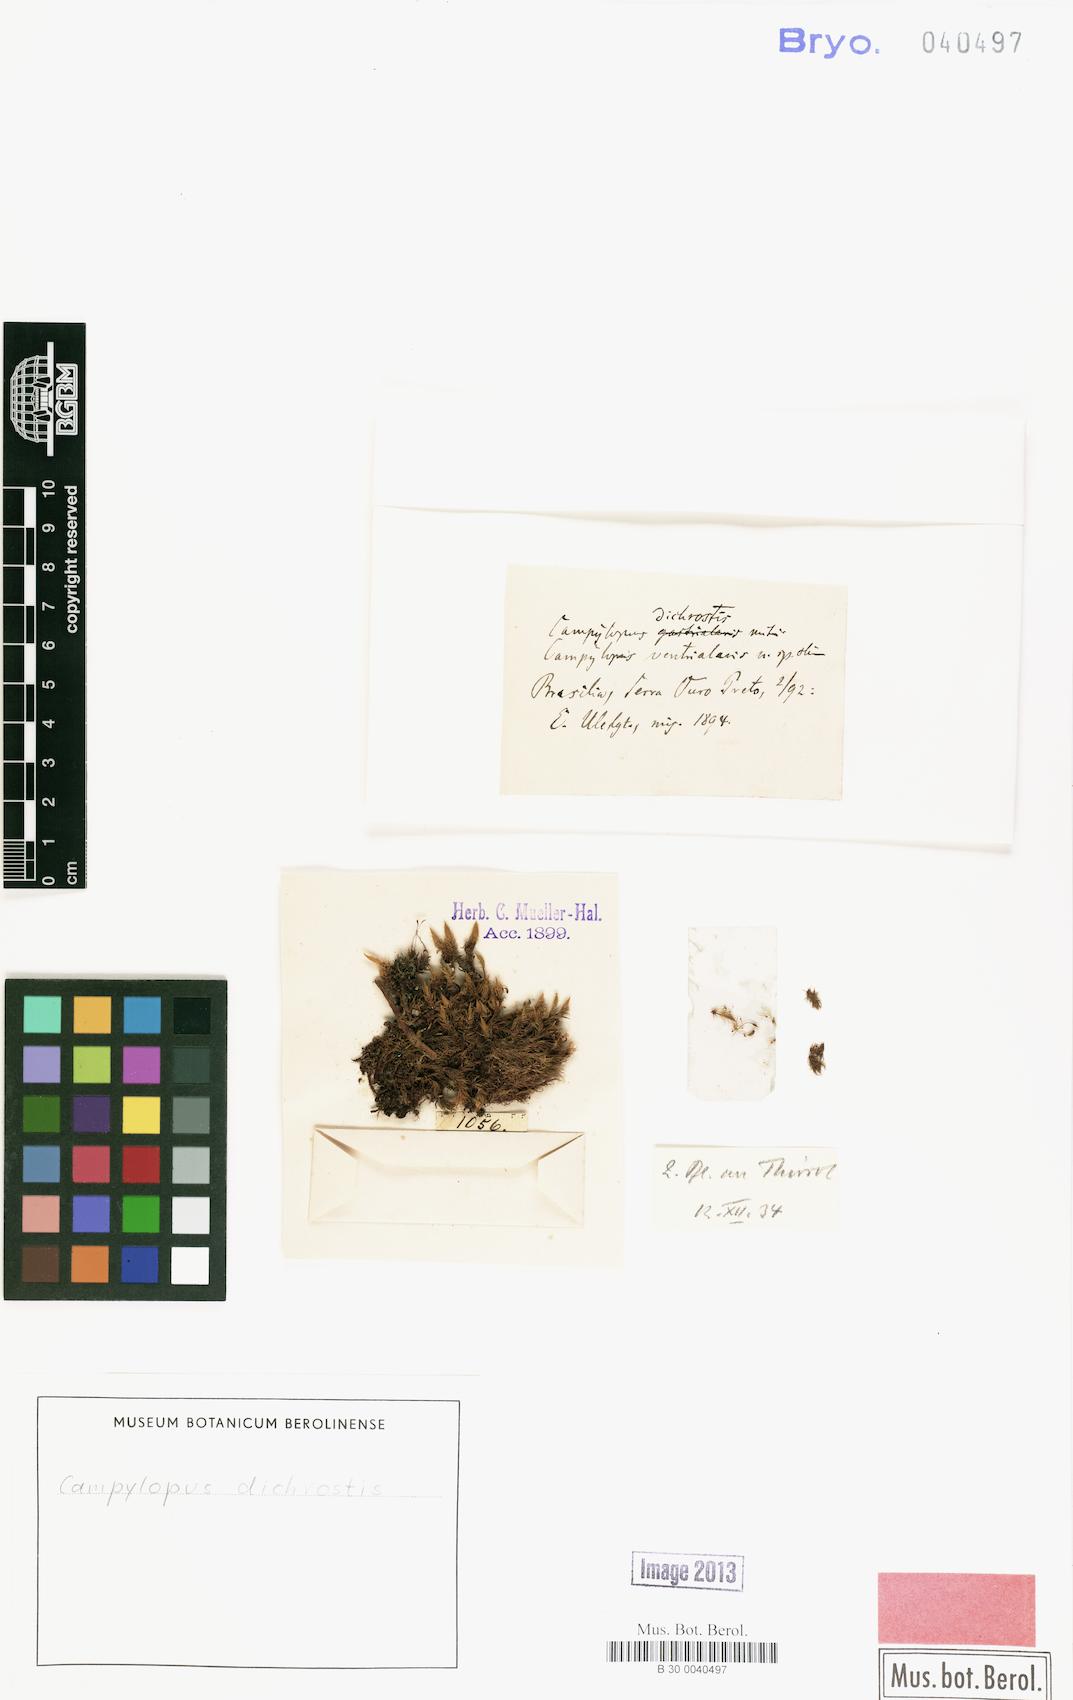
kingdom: Plantae
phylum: Bryophyta
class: Bryopsida
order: Dicranales
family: Leucobryaceae
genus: Campylopus
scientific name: Campylopus dichrostis
